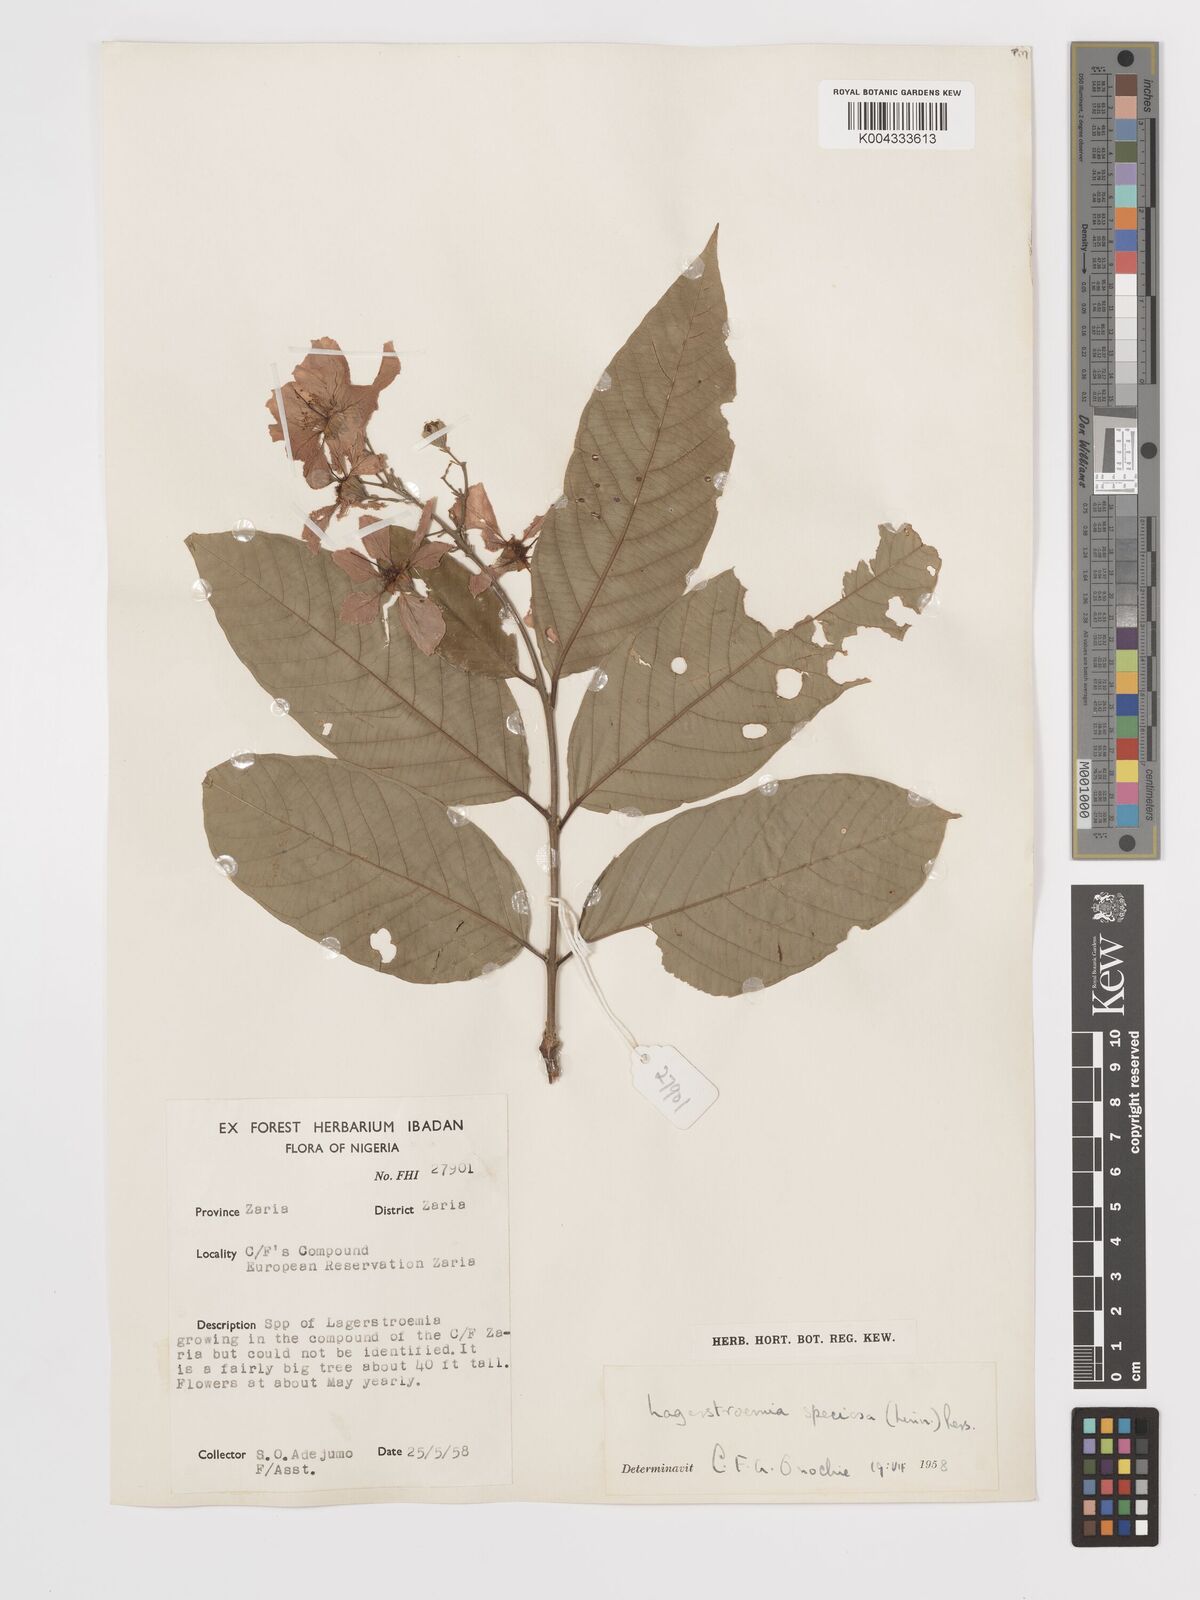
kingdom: Plantae
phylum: Tracheophyta
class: Magnoliopsida
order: Myrtales
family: Lythraceae
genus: Lagerstroemia
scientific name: Lagerstroemia speciosa
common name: Queen's crape-myrtle
